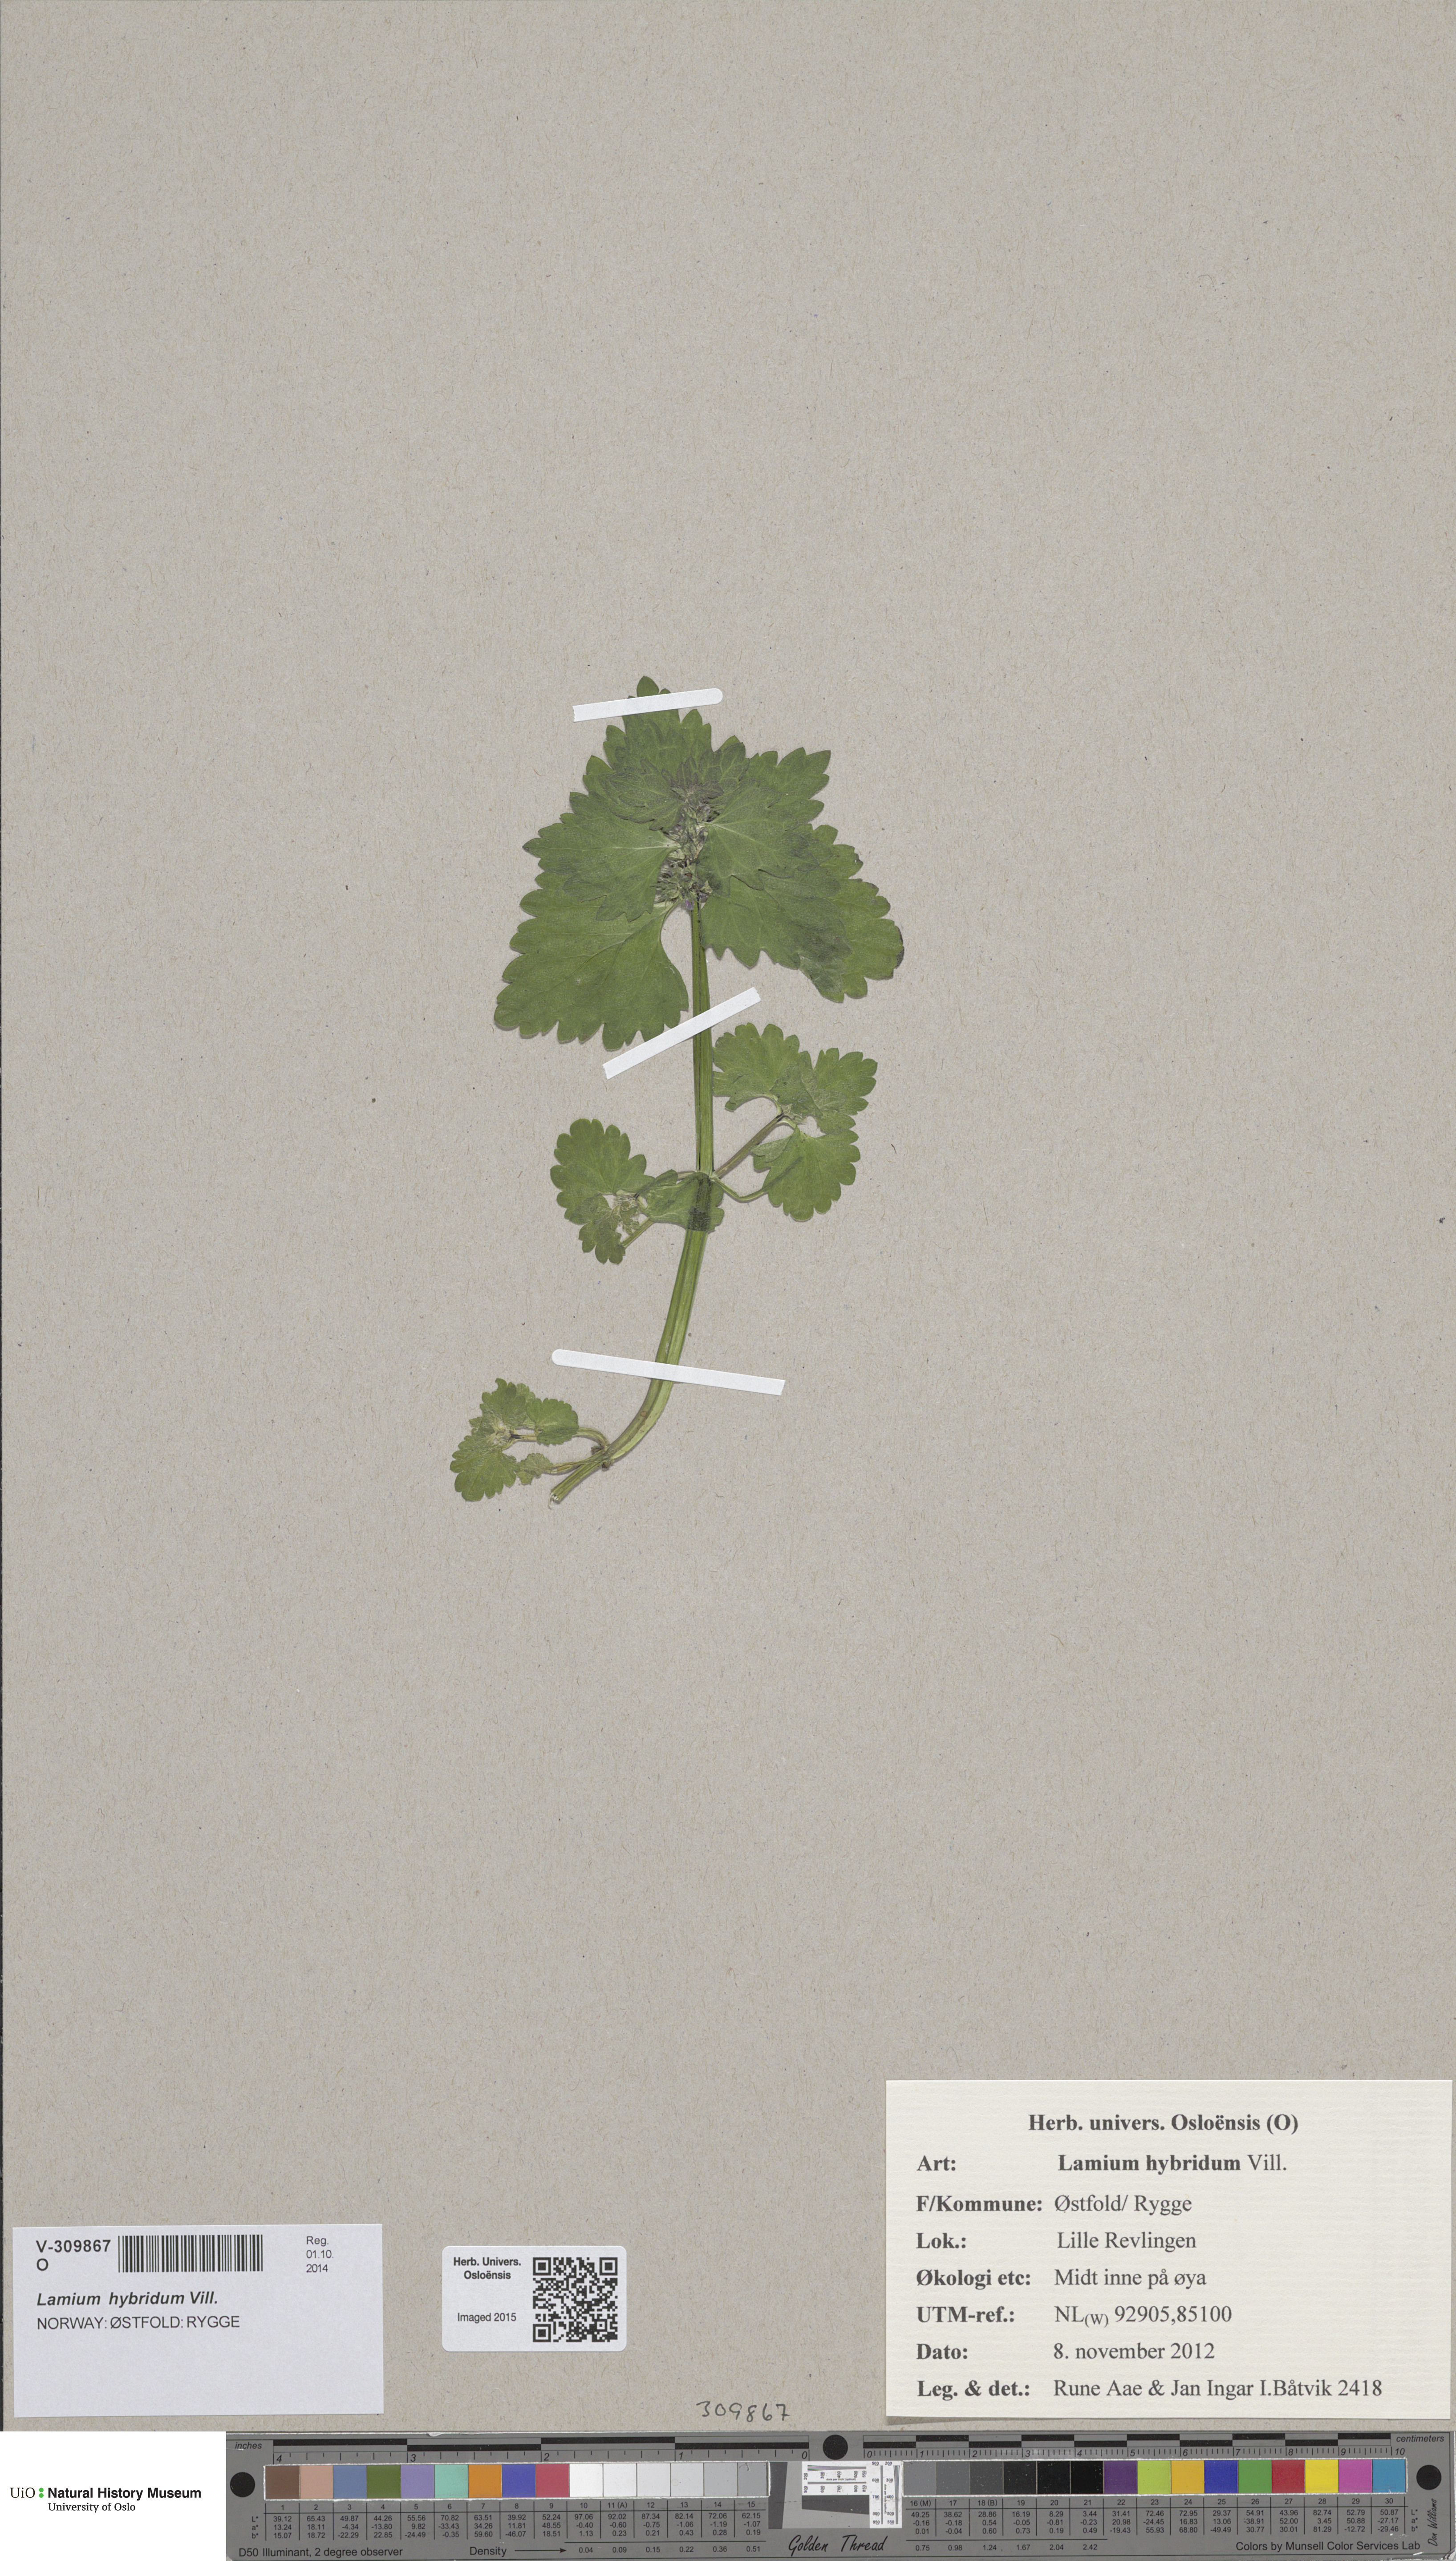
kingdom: Plantae
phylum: Tracheophyta
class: Magnoliopsida
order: Lamiales
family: Lamiaceae
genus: Lamium
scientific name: Lamium hybridum
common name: Cut-leaved dead-nettle
